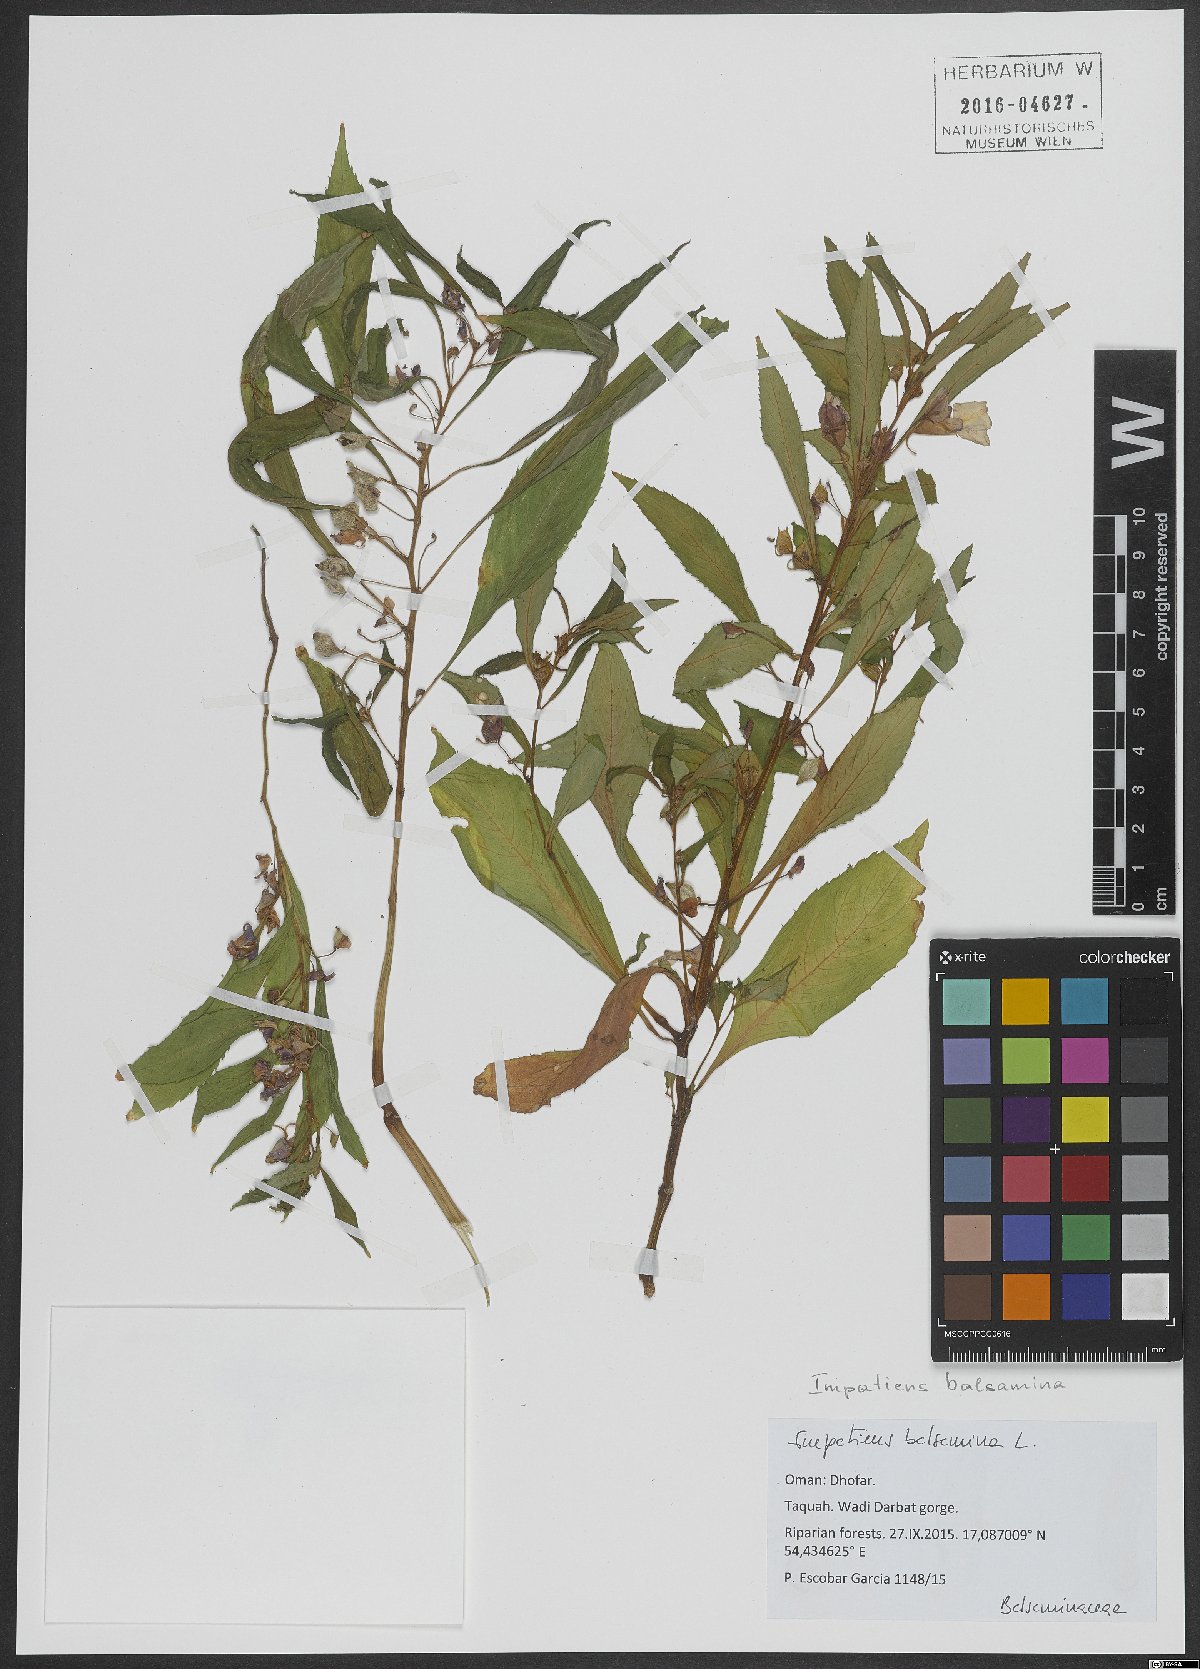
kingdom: Plantae
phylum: Tracheophyta
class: Magnoliopsida
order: Ericales
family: Balsaminaceae
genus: Impatiens
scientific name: Impatiens balsamina
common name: Balsam
